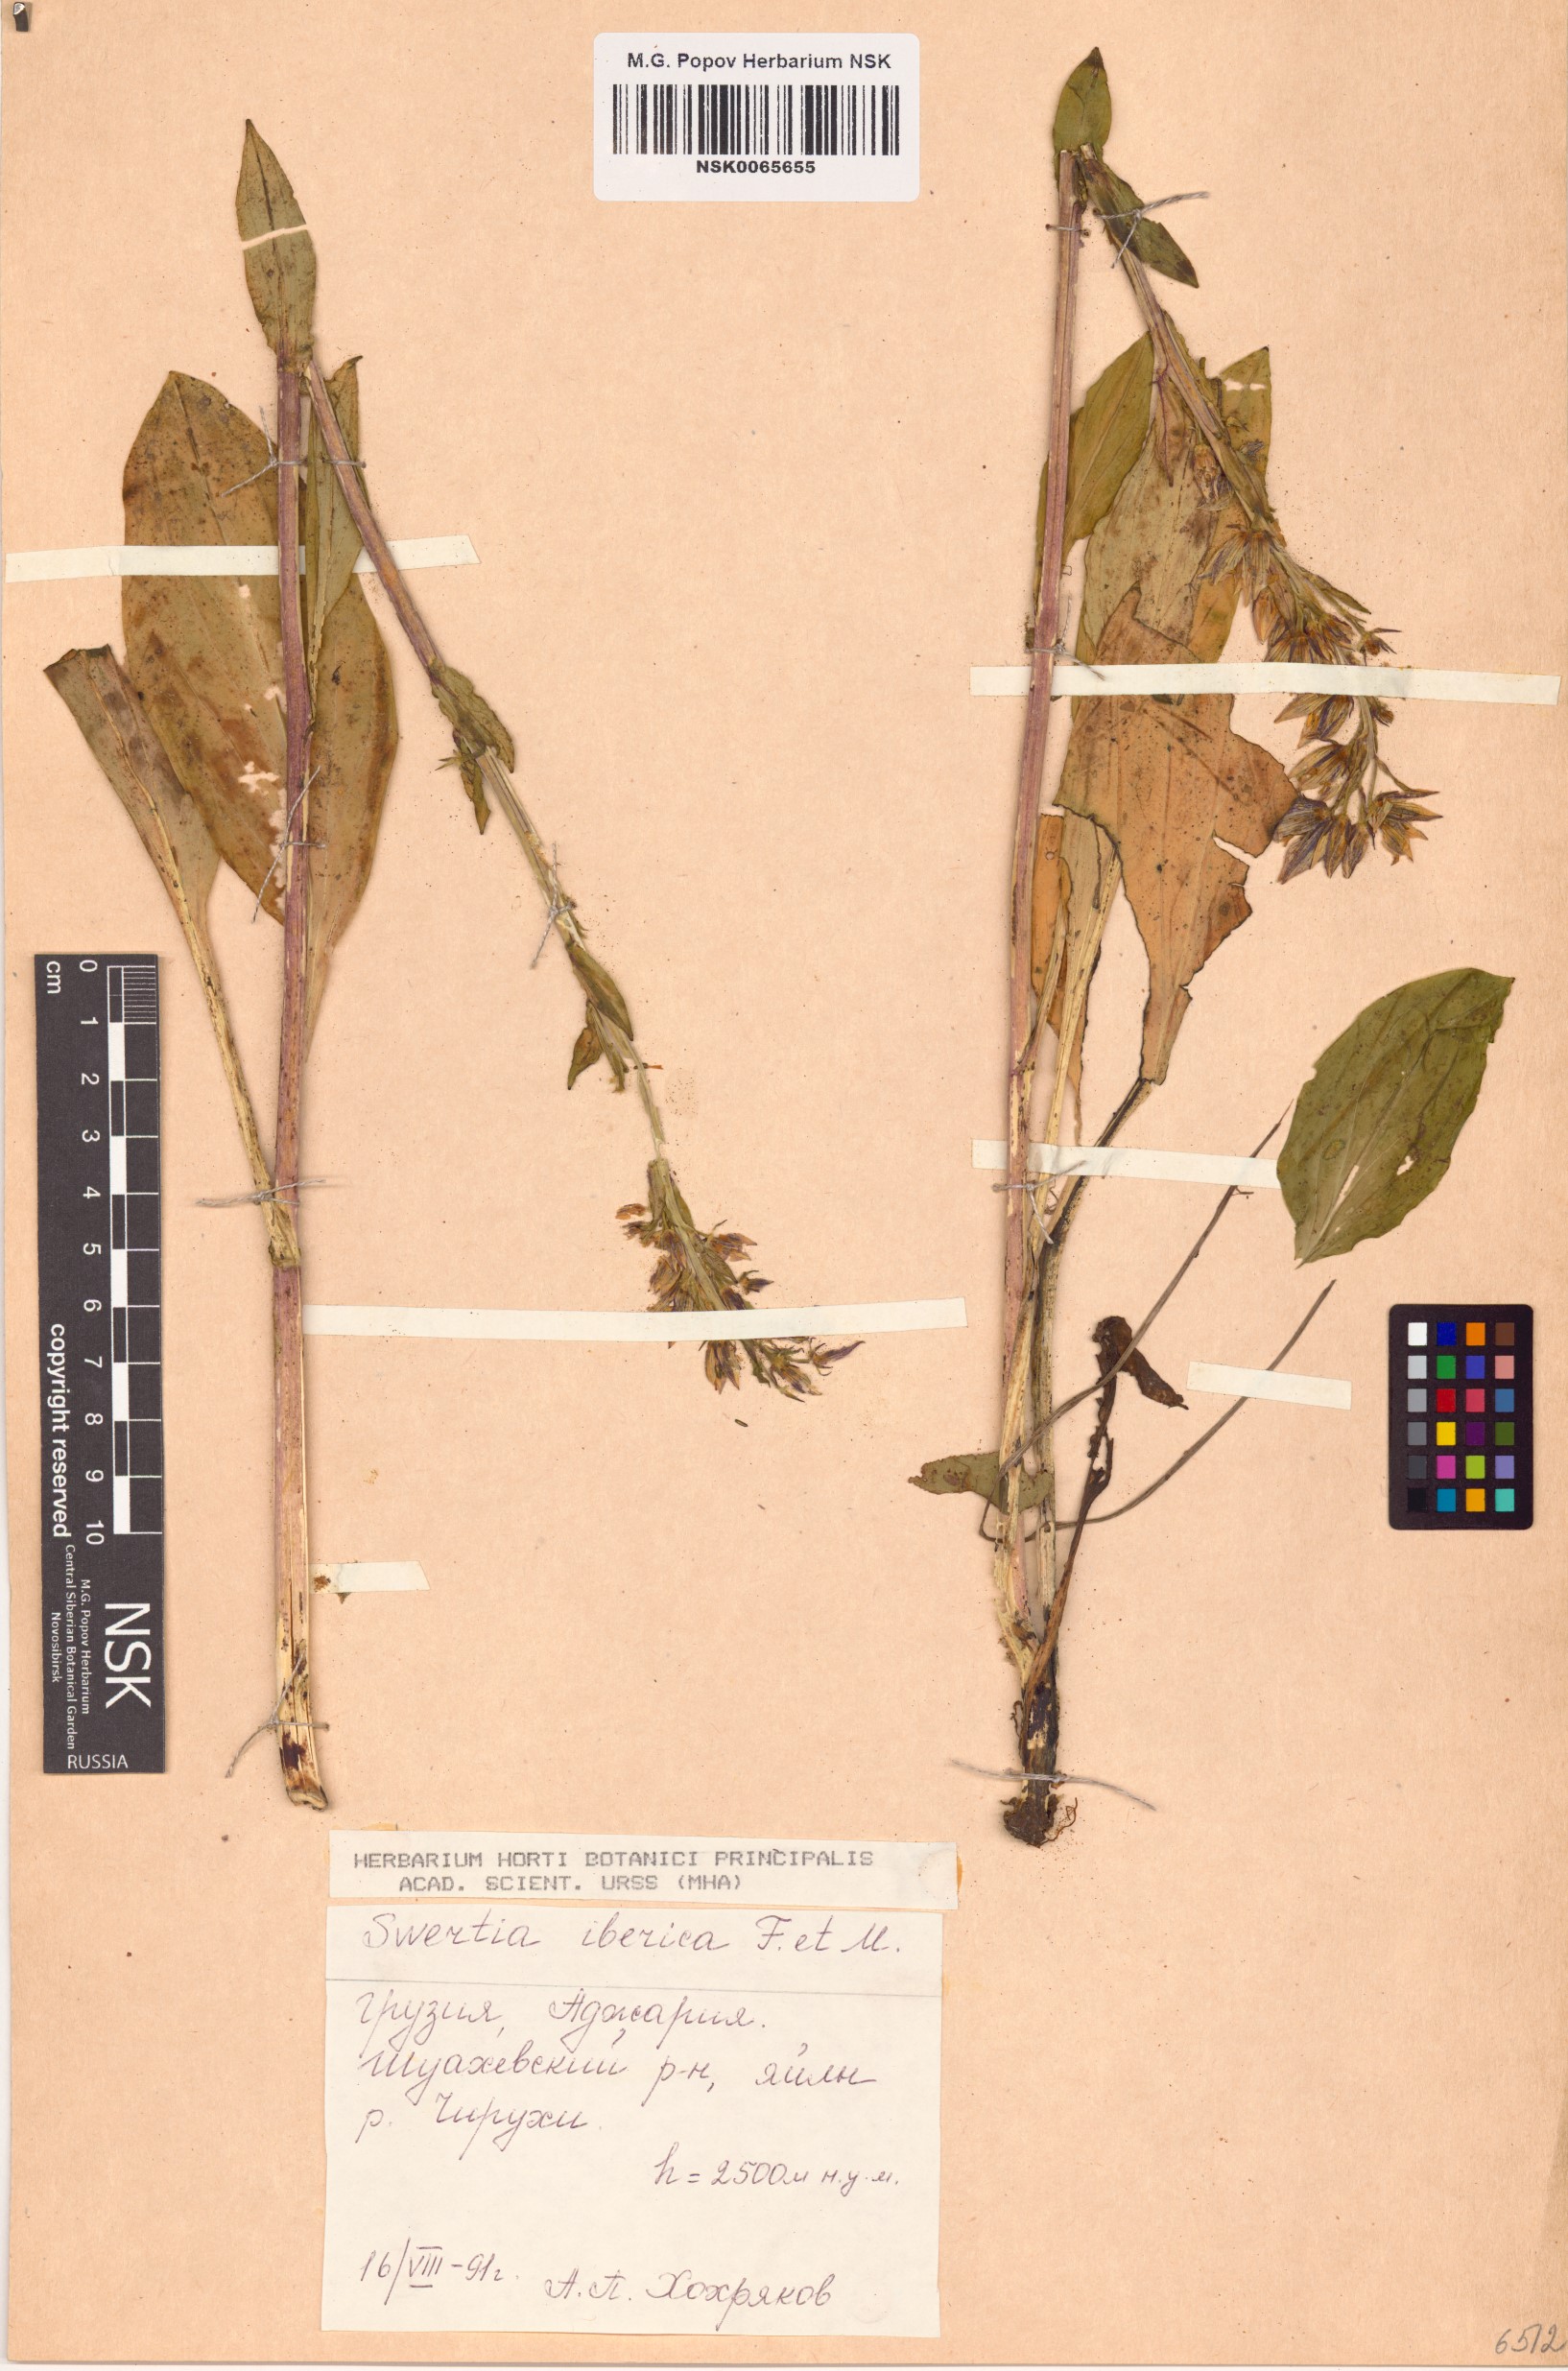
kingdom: Plantae
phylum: Tracheophyta
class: Magnoliopsida
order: Gentianales
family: Gentianaceae
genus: Swertia
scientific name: Swertia iberica
